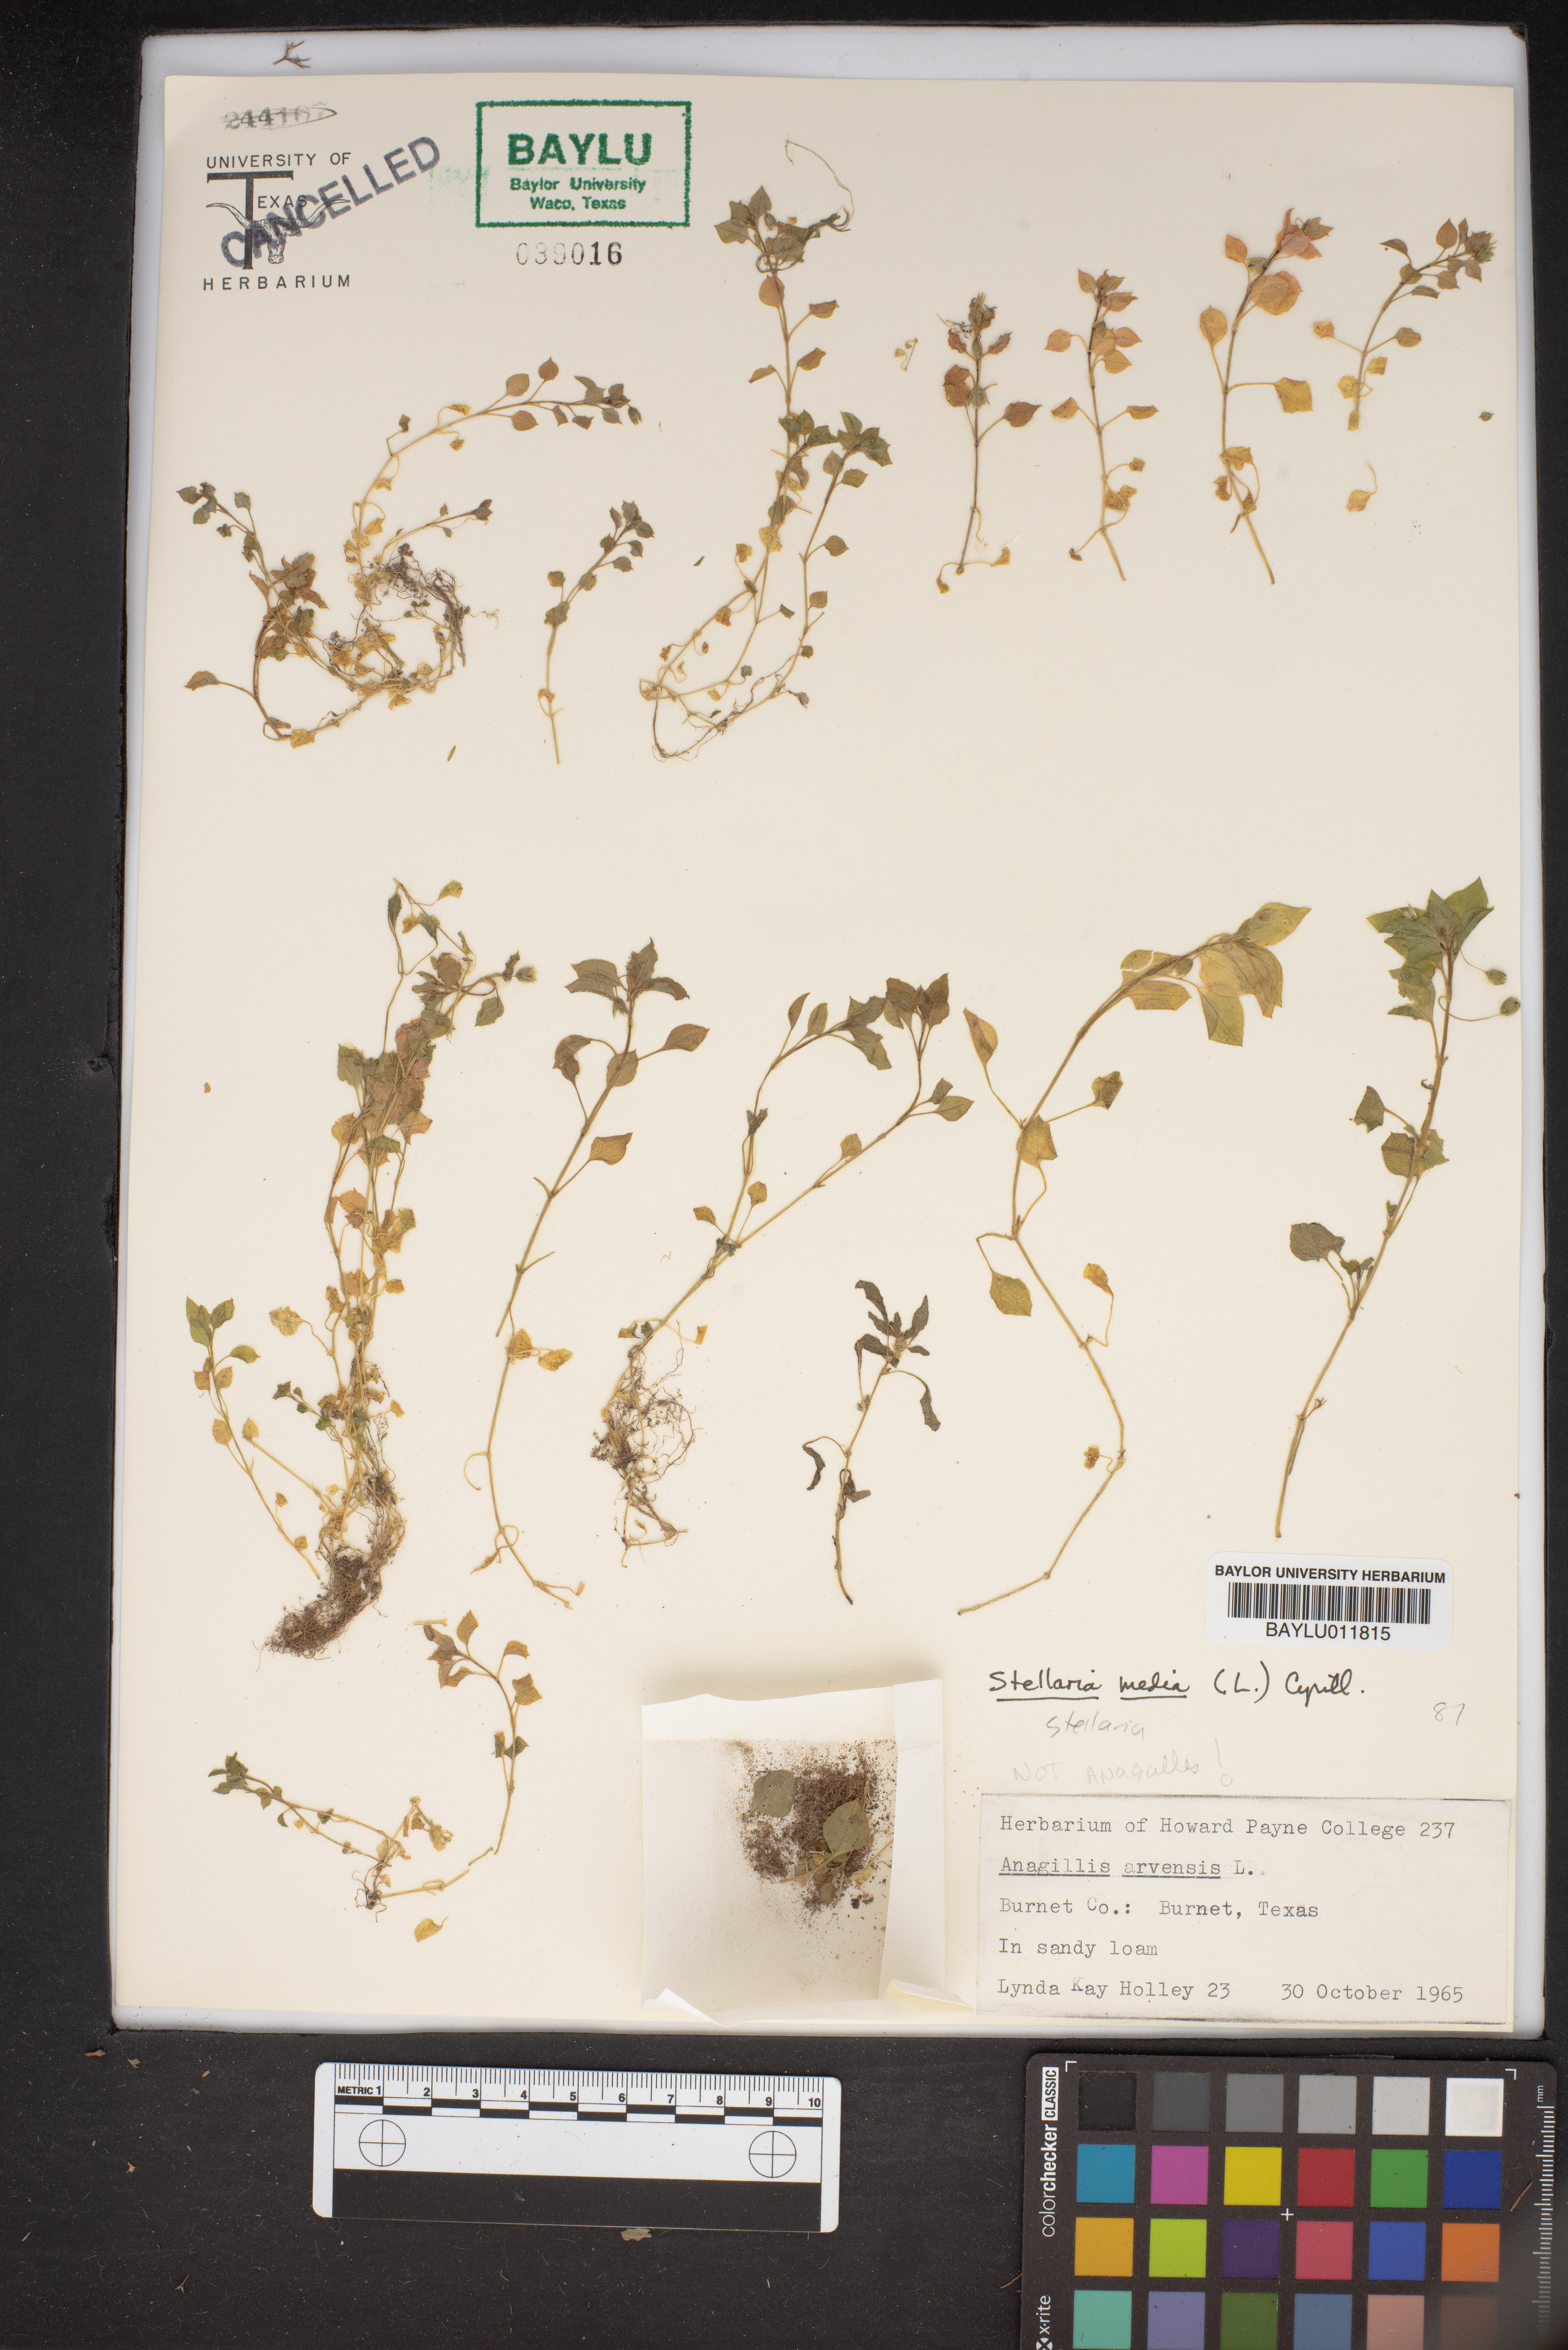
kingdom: Plantae
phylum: Tracheophyta
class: Magnoliopsida
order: Caryophyllales
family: Caryophyllaceae
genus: Stellaria
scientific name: Stellaria media
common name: Common chickweed
